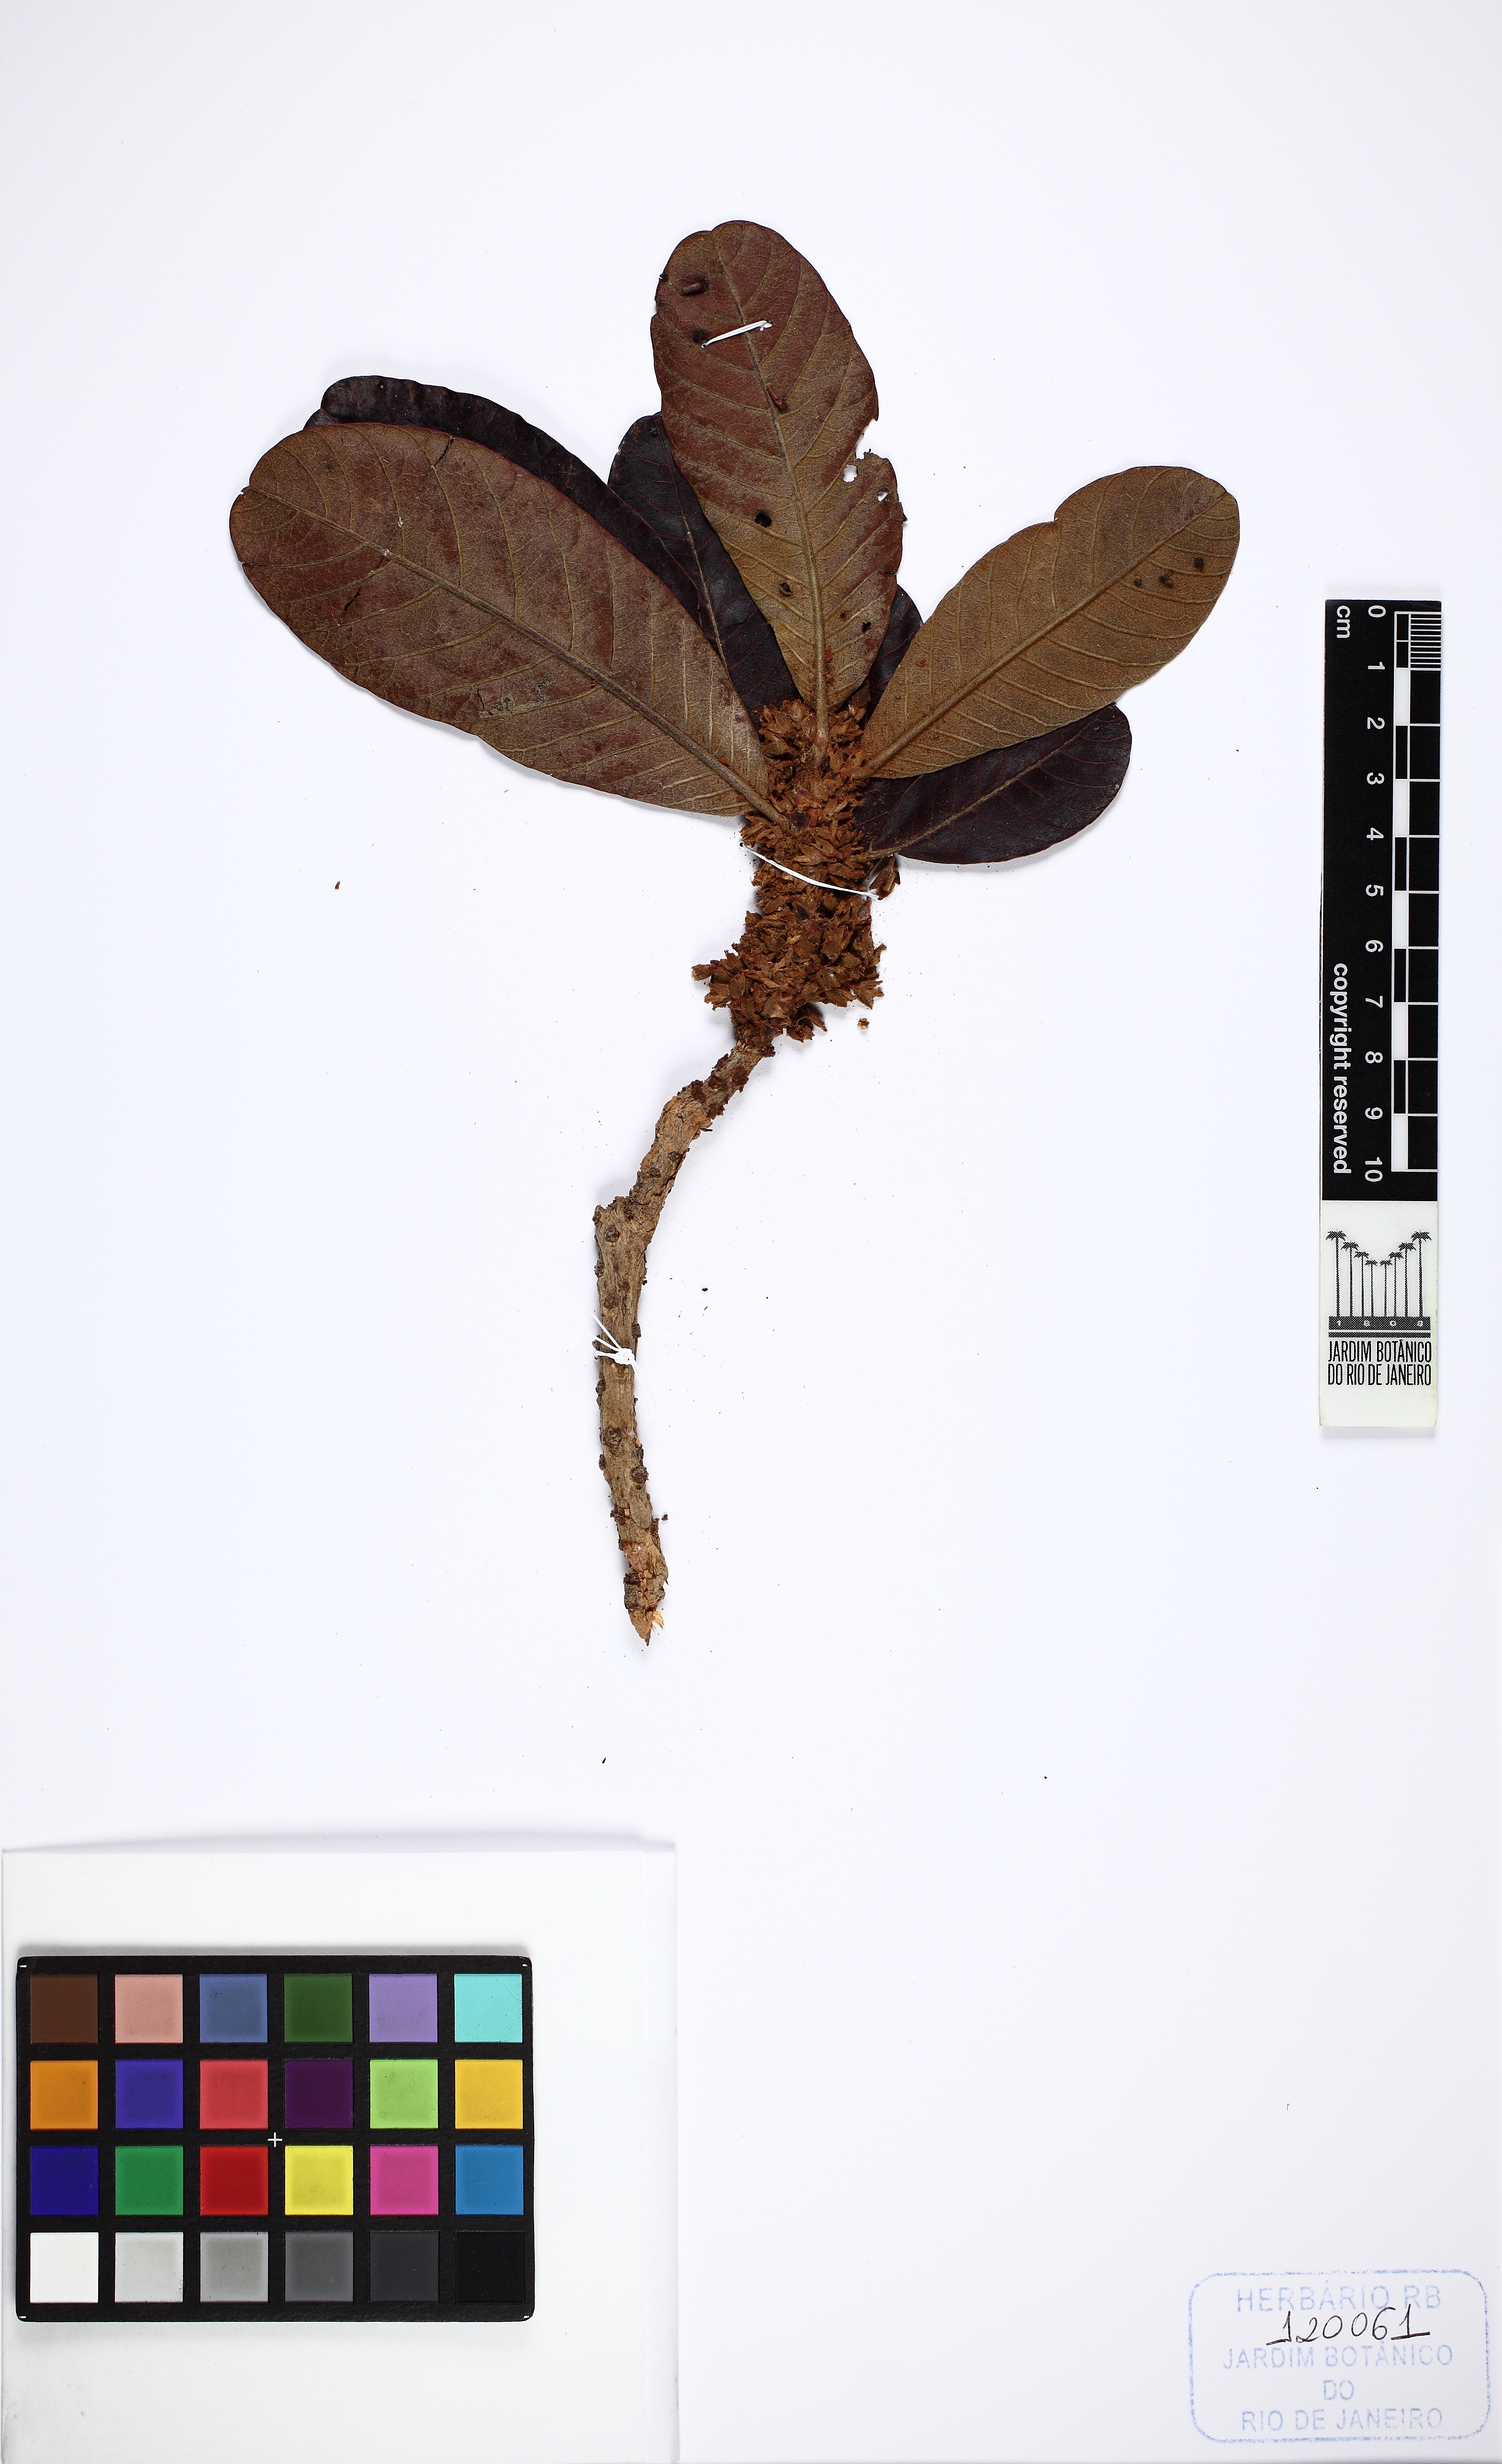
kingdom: Plantae
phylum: Tracheophyta
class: Magnoliopsida
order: Ericales
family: Sapotaceae
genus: Pouteria
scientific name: Pouteria torta
